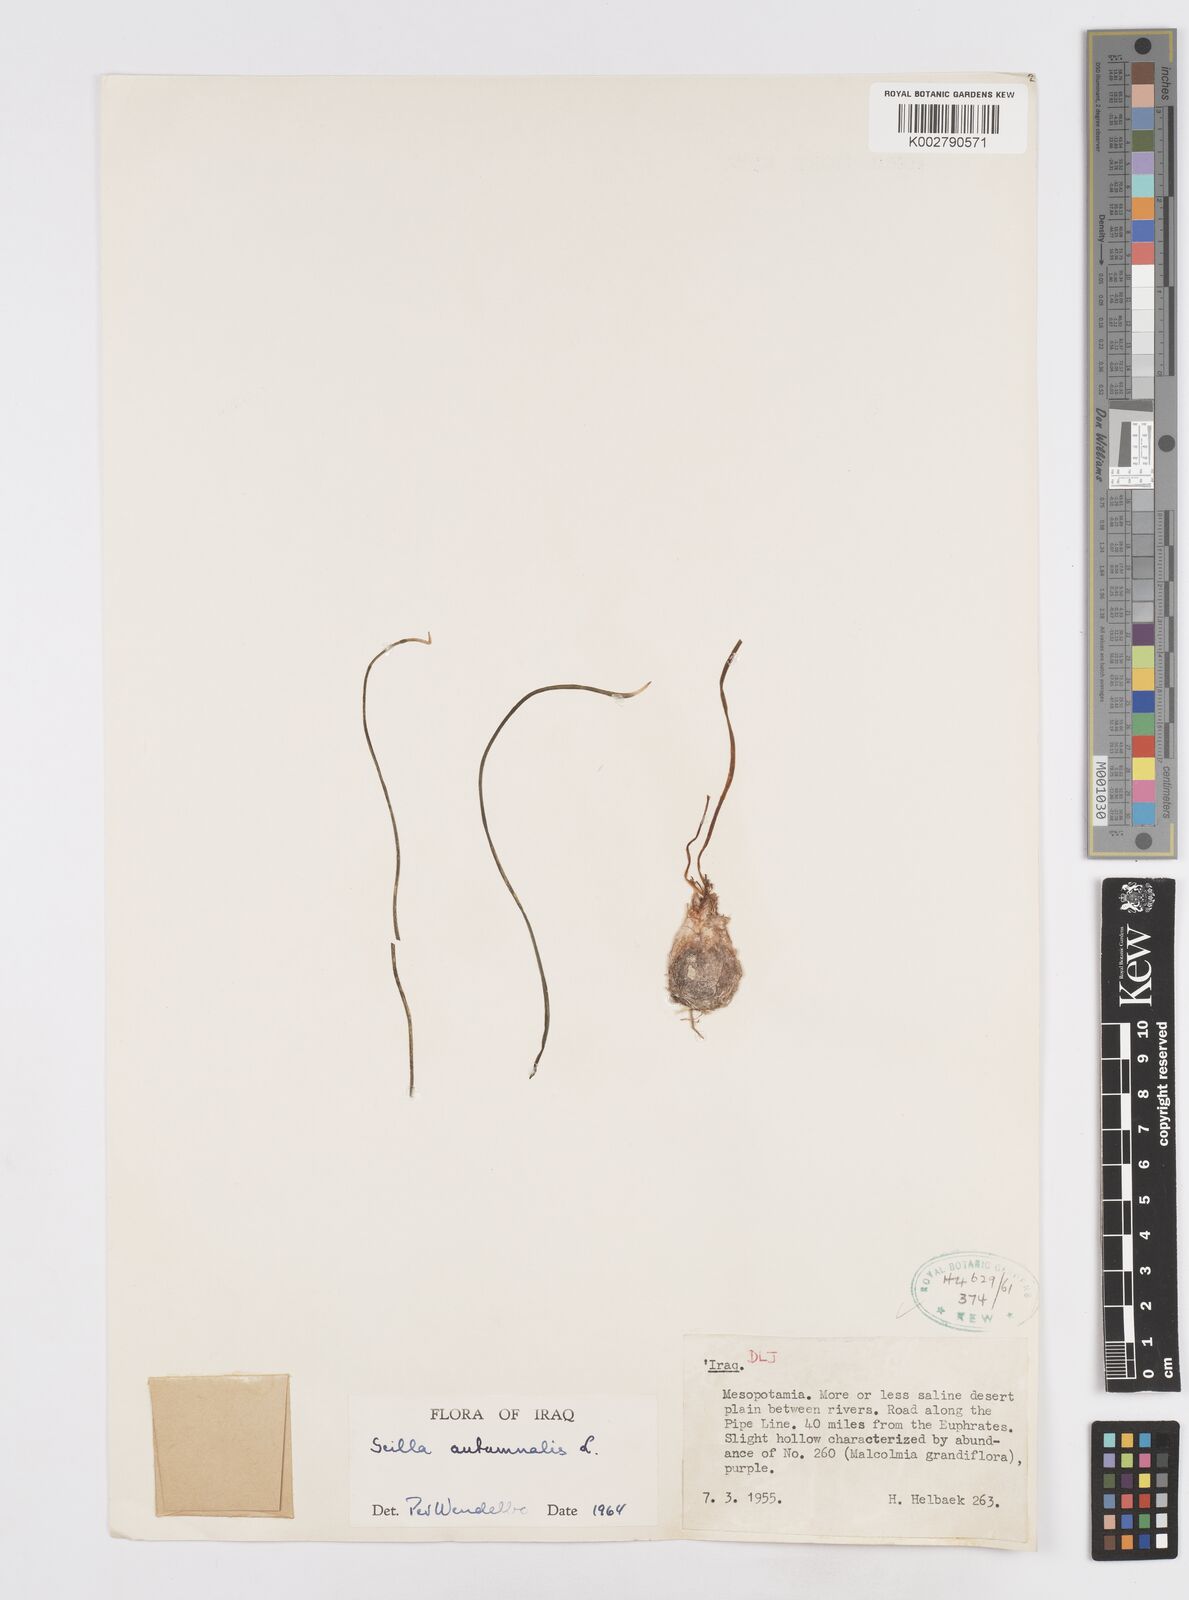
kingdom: Plantae
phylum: Tracheophyta
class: Liliopsida
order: Asparagales
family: Asparagaceae
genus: Prospero
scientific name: Prospero autumnale
